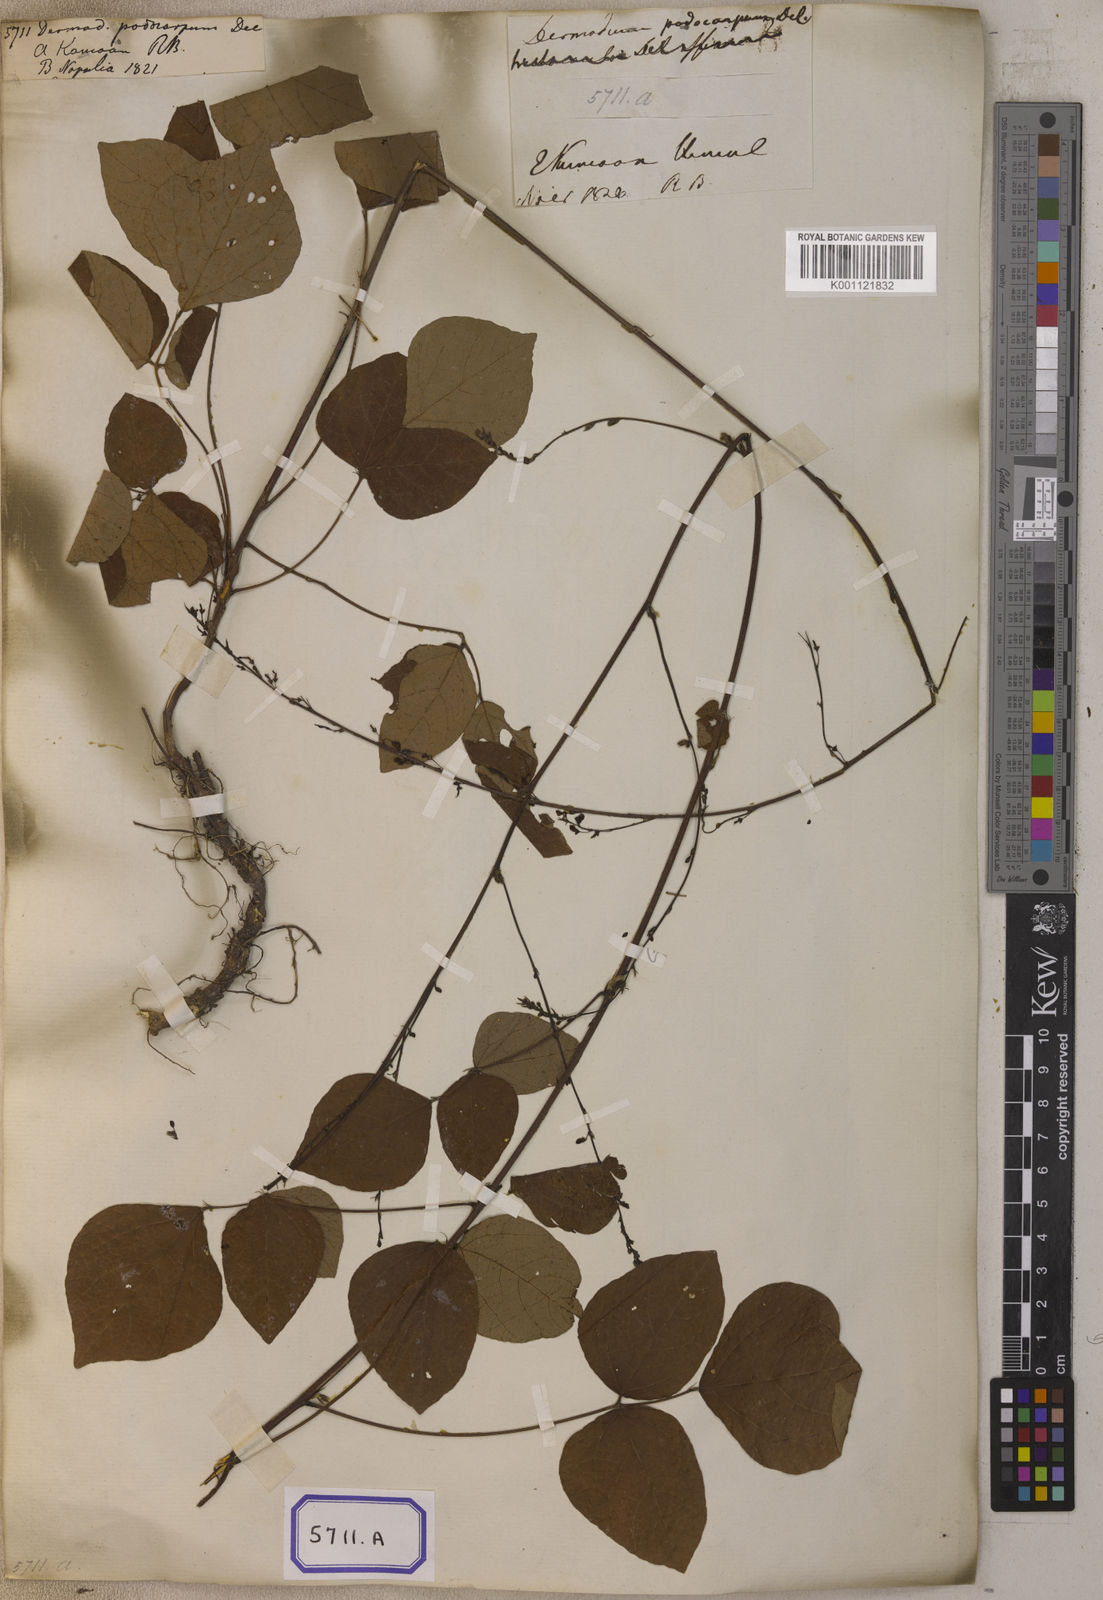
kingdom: Plantae
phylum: Tracheophyta
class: Magnoliopsida
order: Fabales
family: Fabaceae
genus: Hylodesmum
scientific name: Hylodesmum podocarpum
